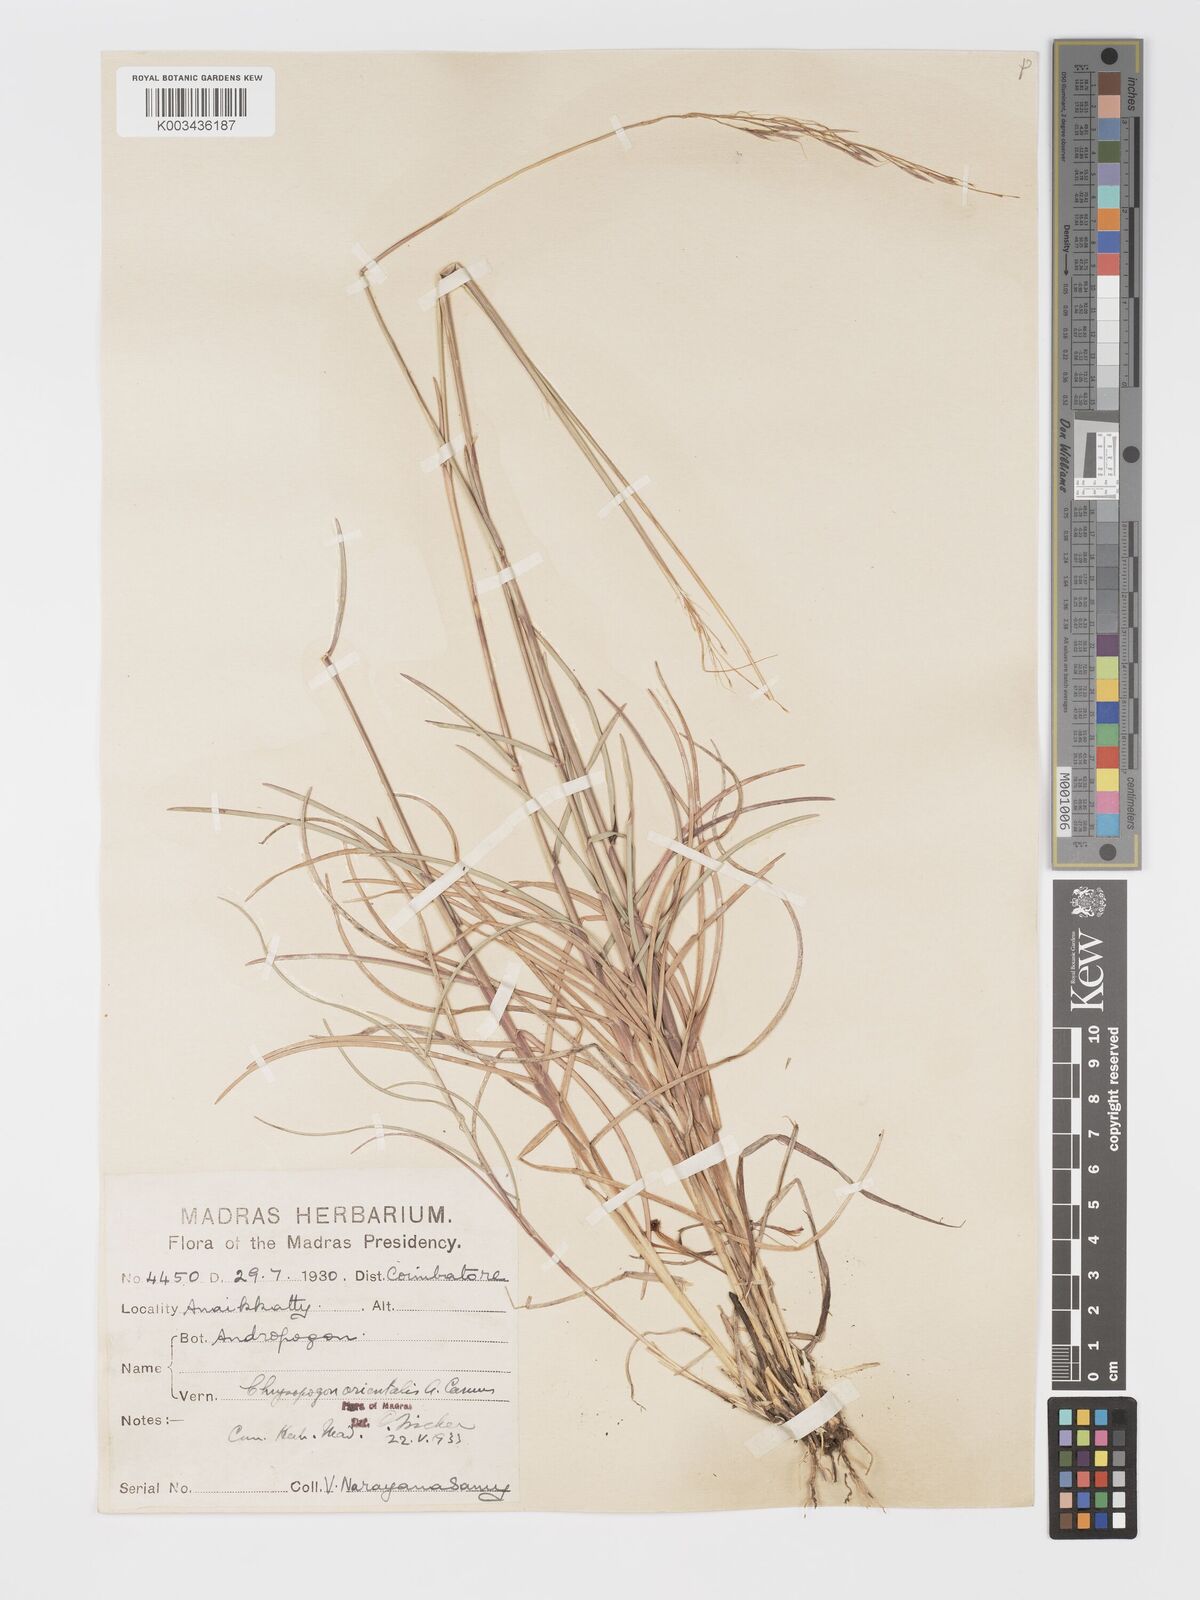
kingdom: Plantae
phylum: Tracheophyta
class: Liliopsida
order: Poales
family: Poaceae
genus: Chrysopogon
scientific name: Chrysopogon orientalis
